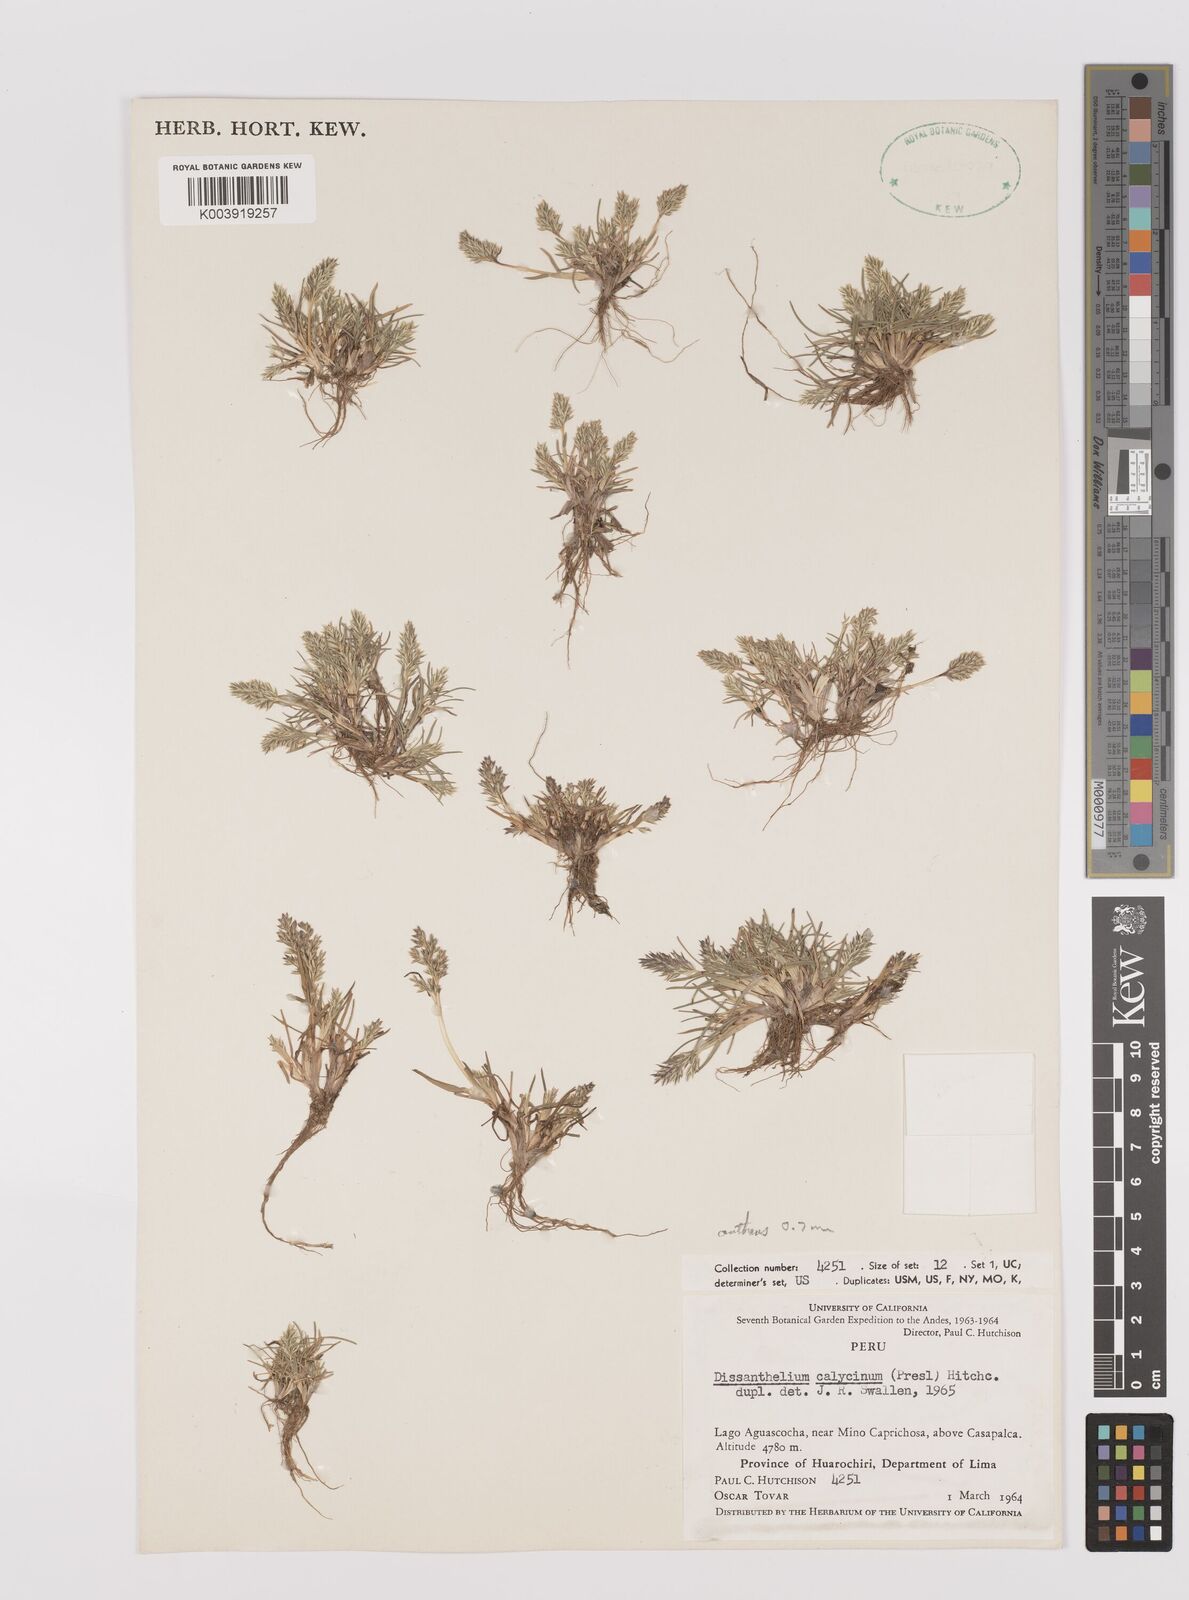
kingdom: Plantae
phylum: Tracheophyta
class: Liliopsida
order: Poales
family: Poaceae
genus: Poa
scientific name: Poa calycina
